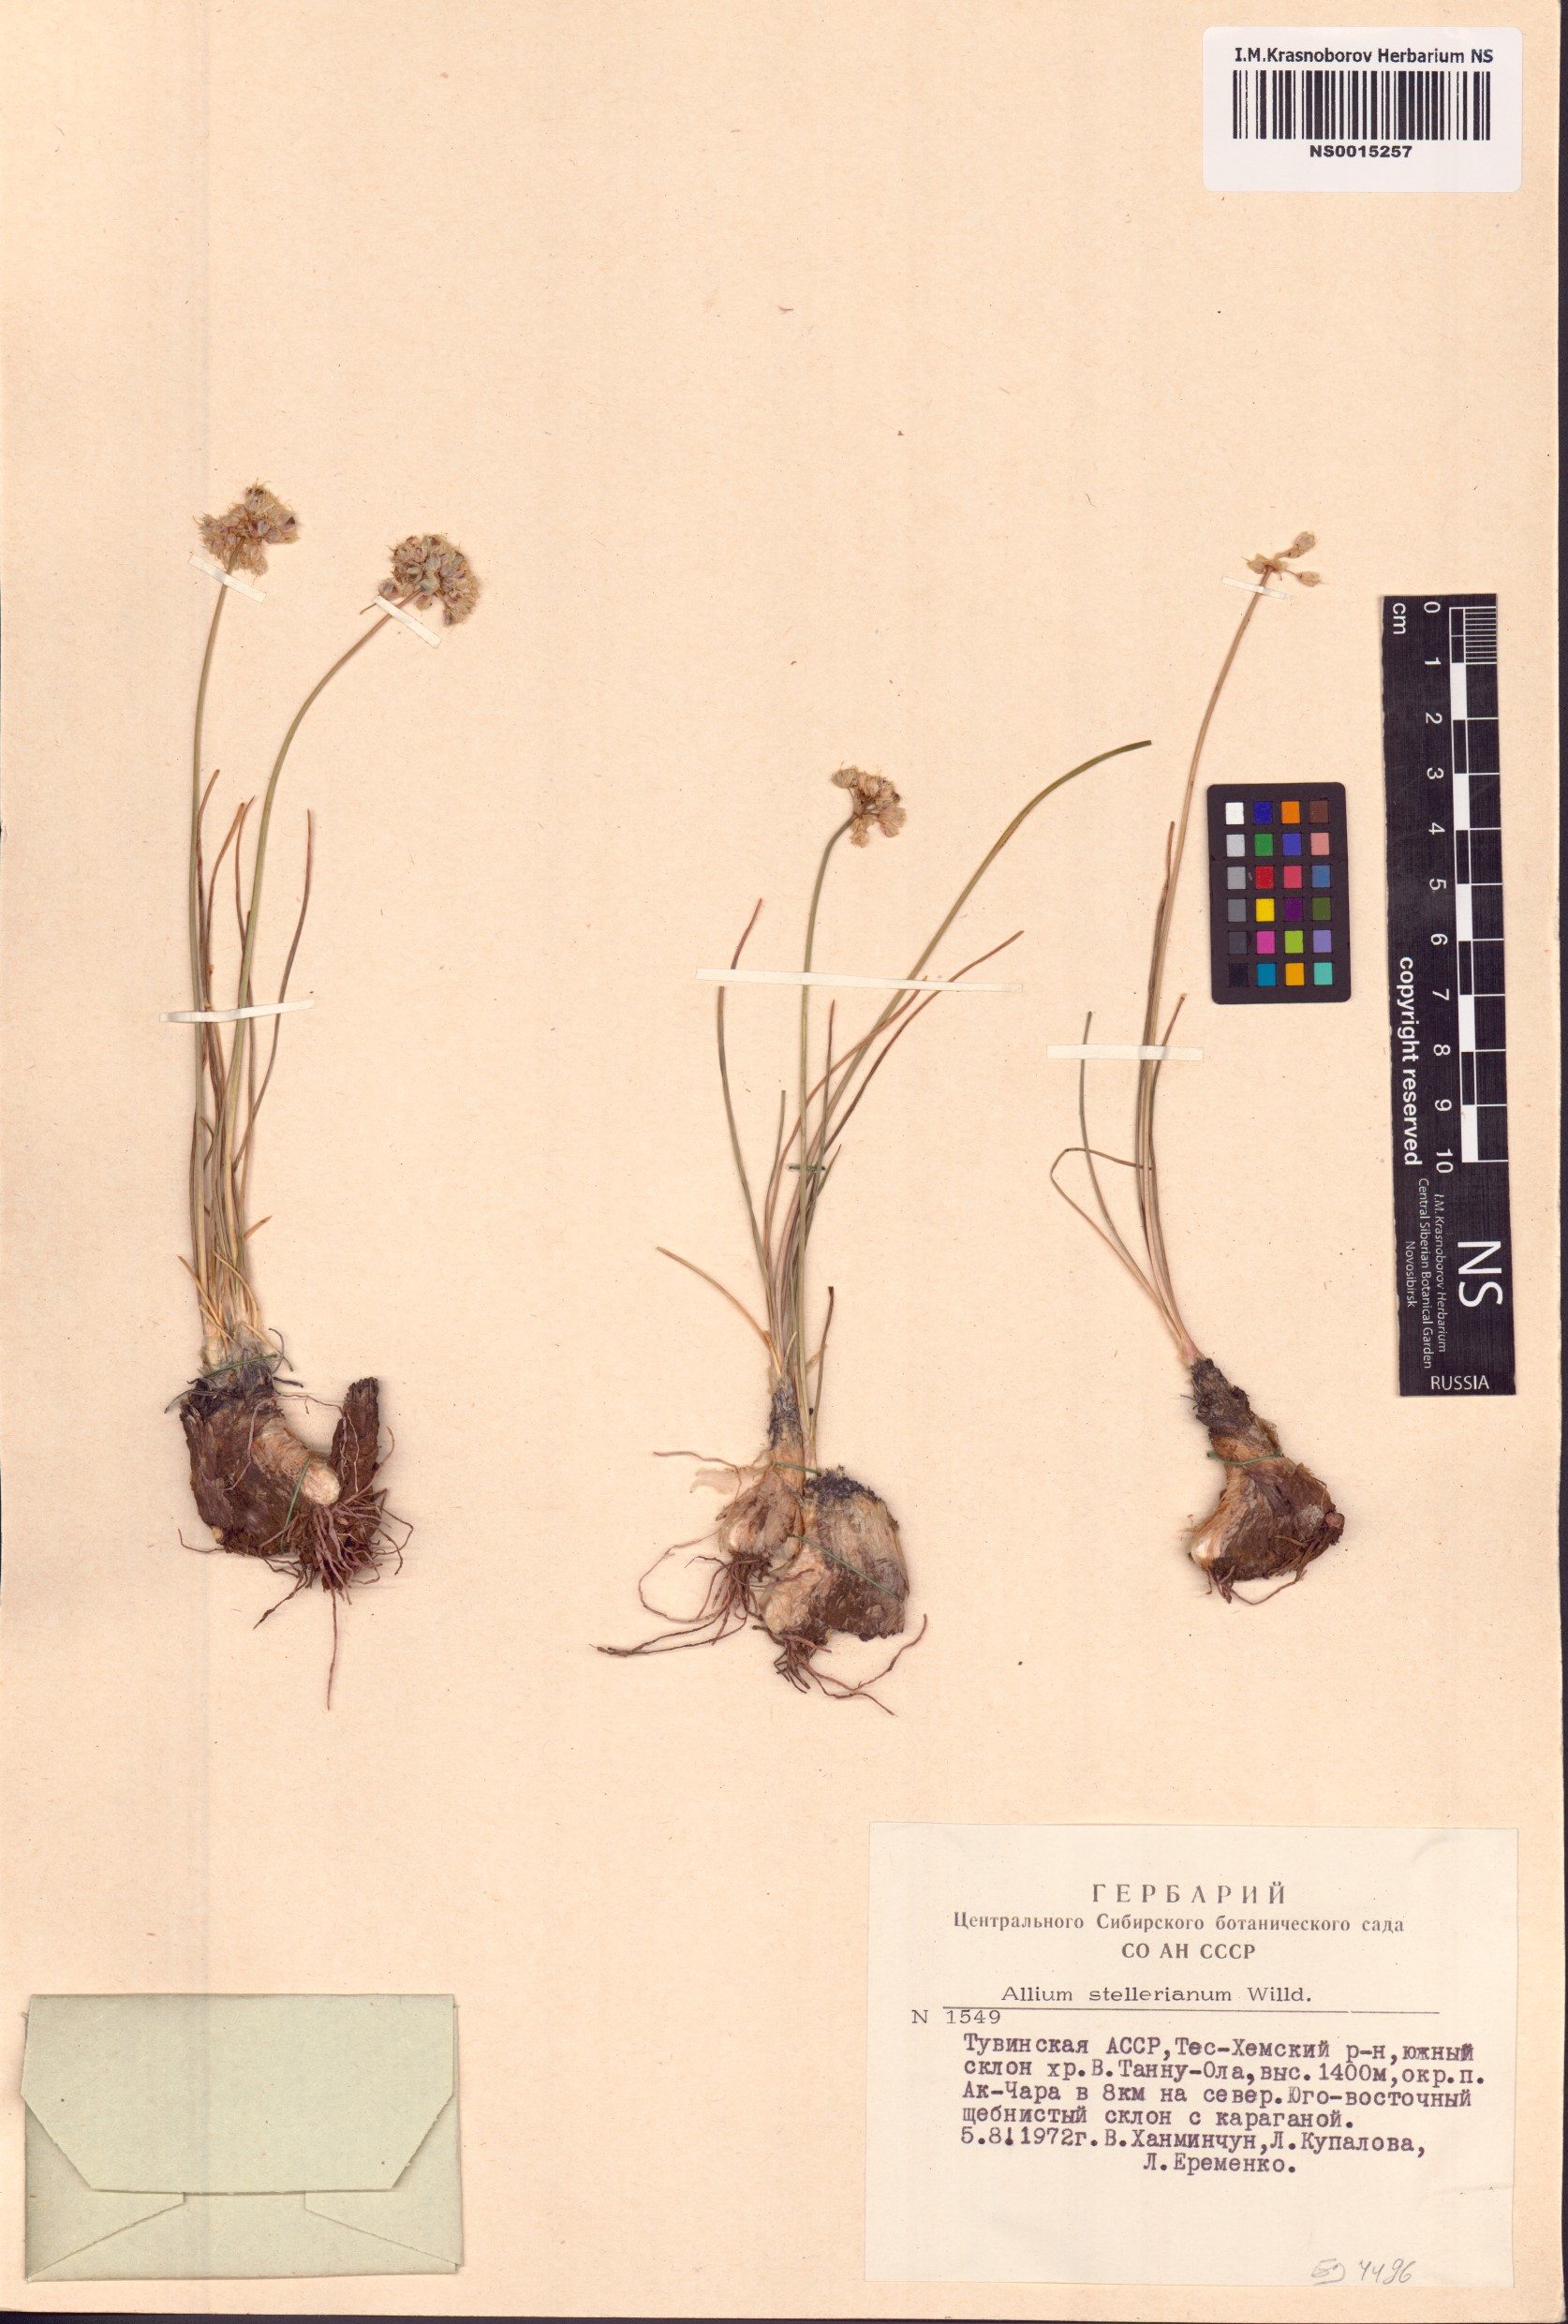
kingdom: Plantae
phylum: Tracheophyta
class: Liliopsida
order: Asparagales
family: Amaryllidaceae
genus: Allium
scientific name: Allium stellerianum
